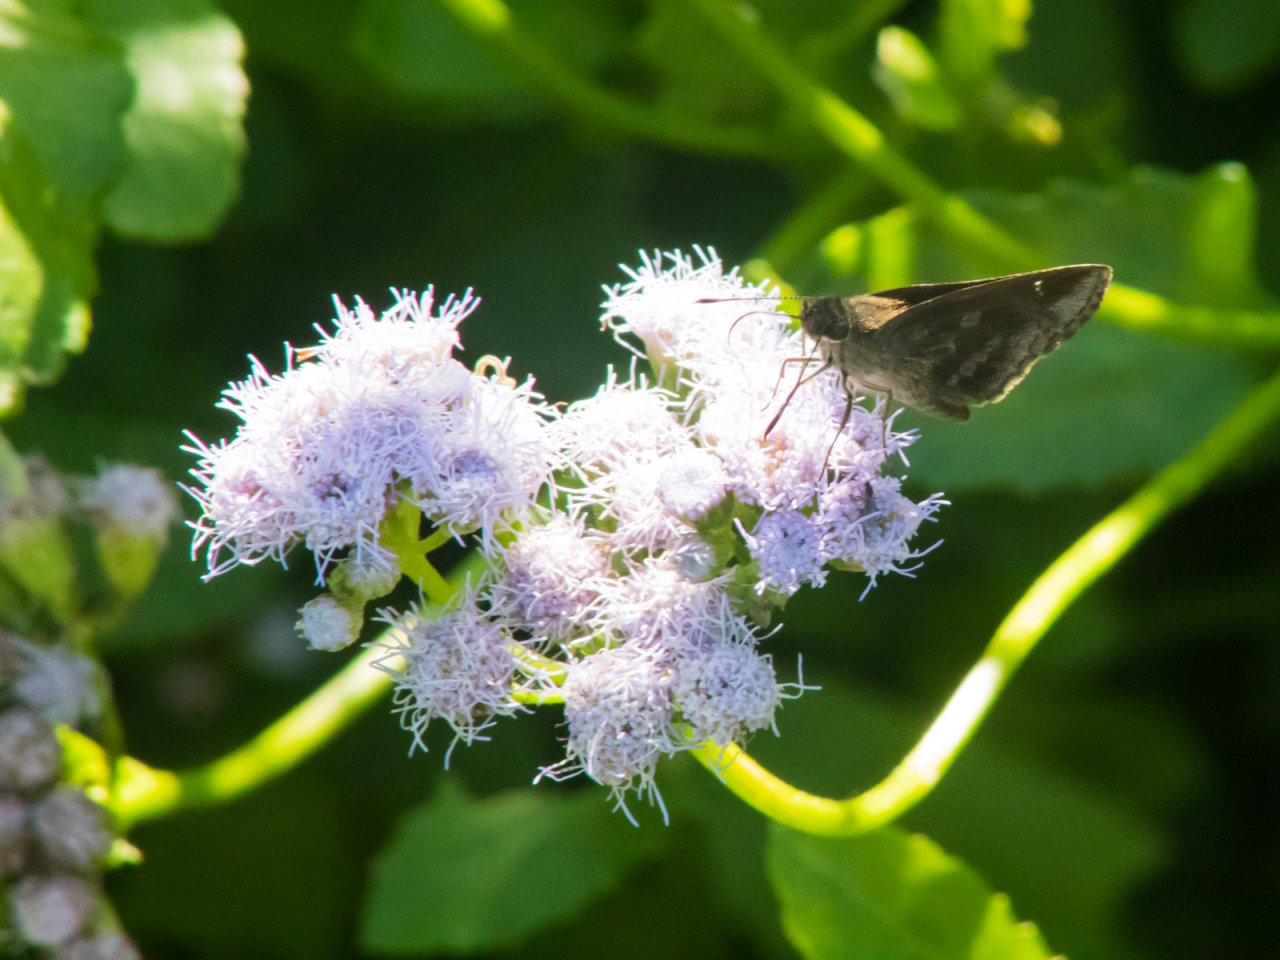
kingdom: Animalia
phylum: Arthropoda
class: Insecta
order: Lepidoptera
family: Hesperiidae
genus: Cymaenes
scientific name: Cymaenes odilia
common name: Fawn-spotted Skipper
